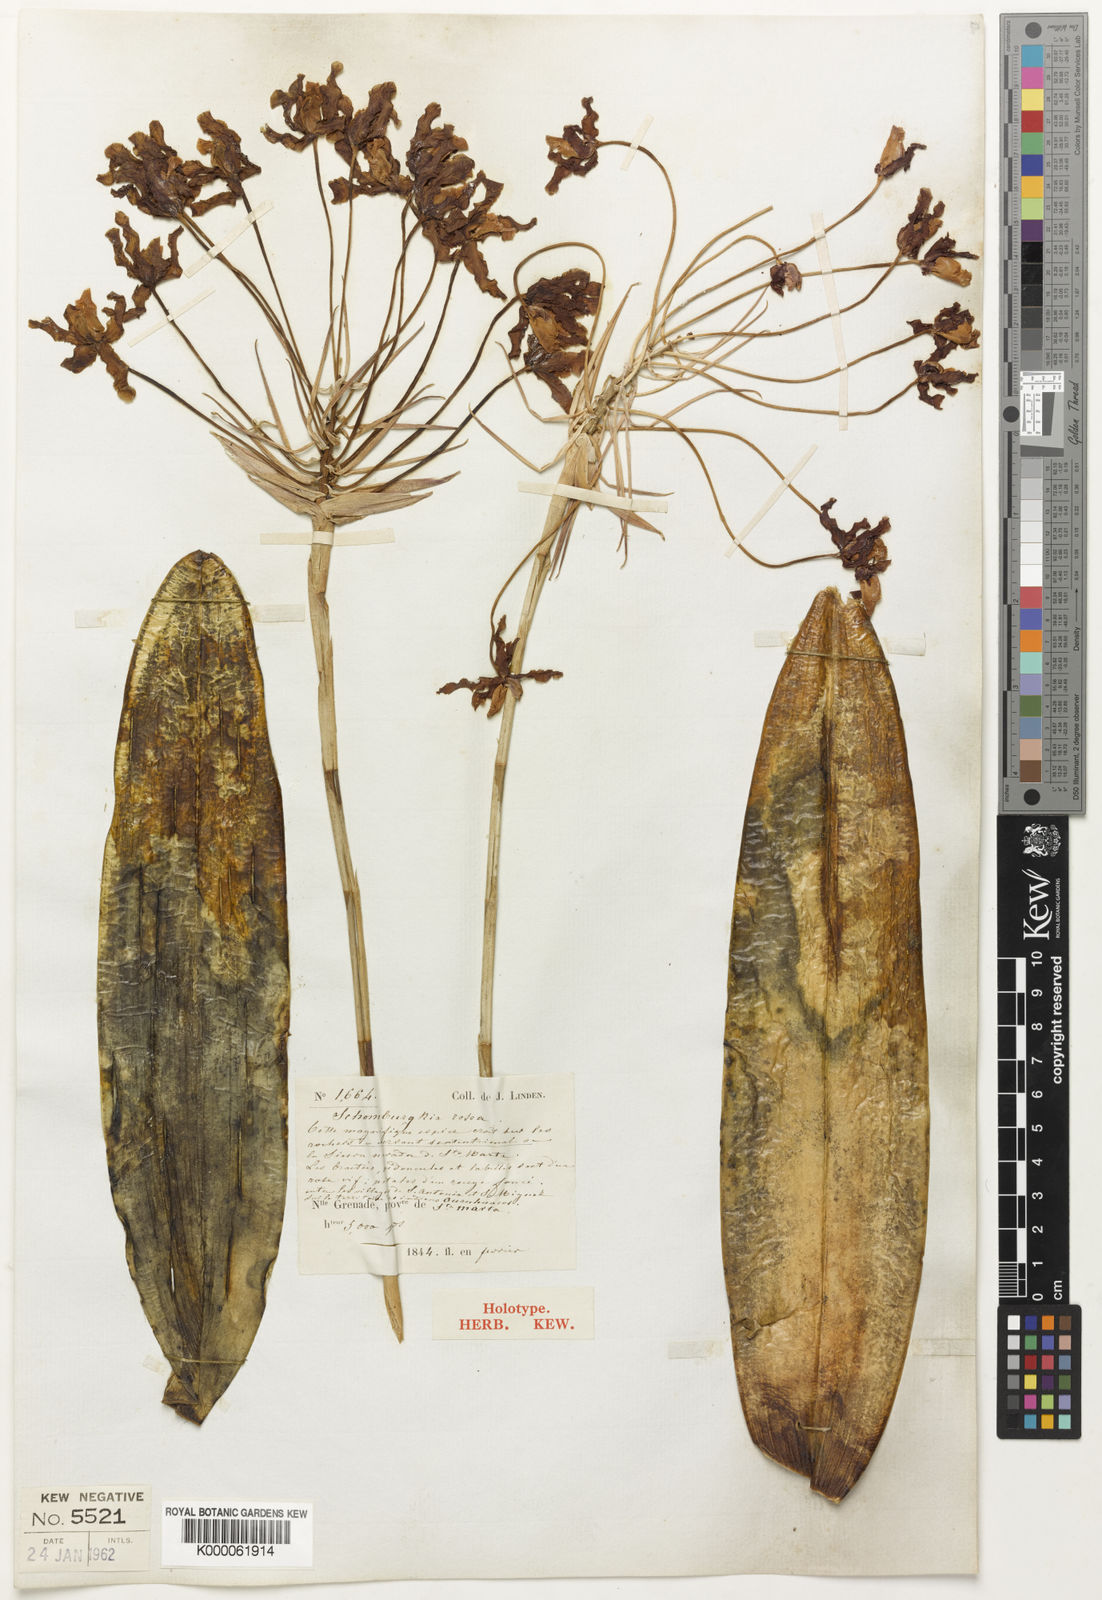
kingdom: Plantae
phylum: Tracheophyta
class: Liliopsida
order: Asparagales
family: Orchidaceae
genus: Laelia
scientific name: Laelia rosea
